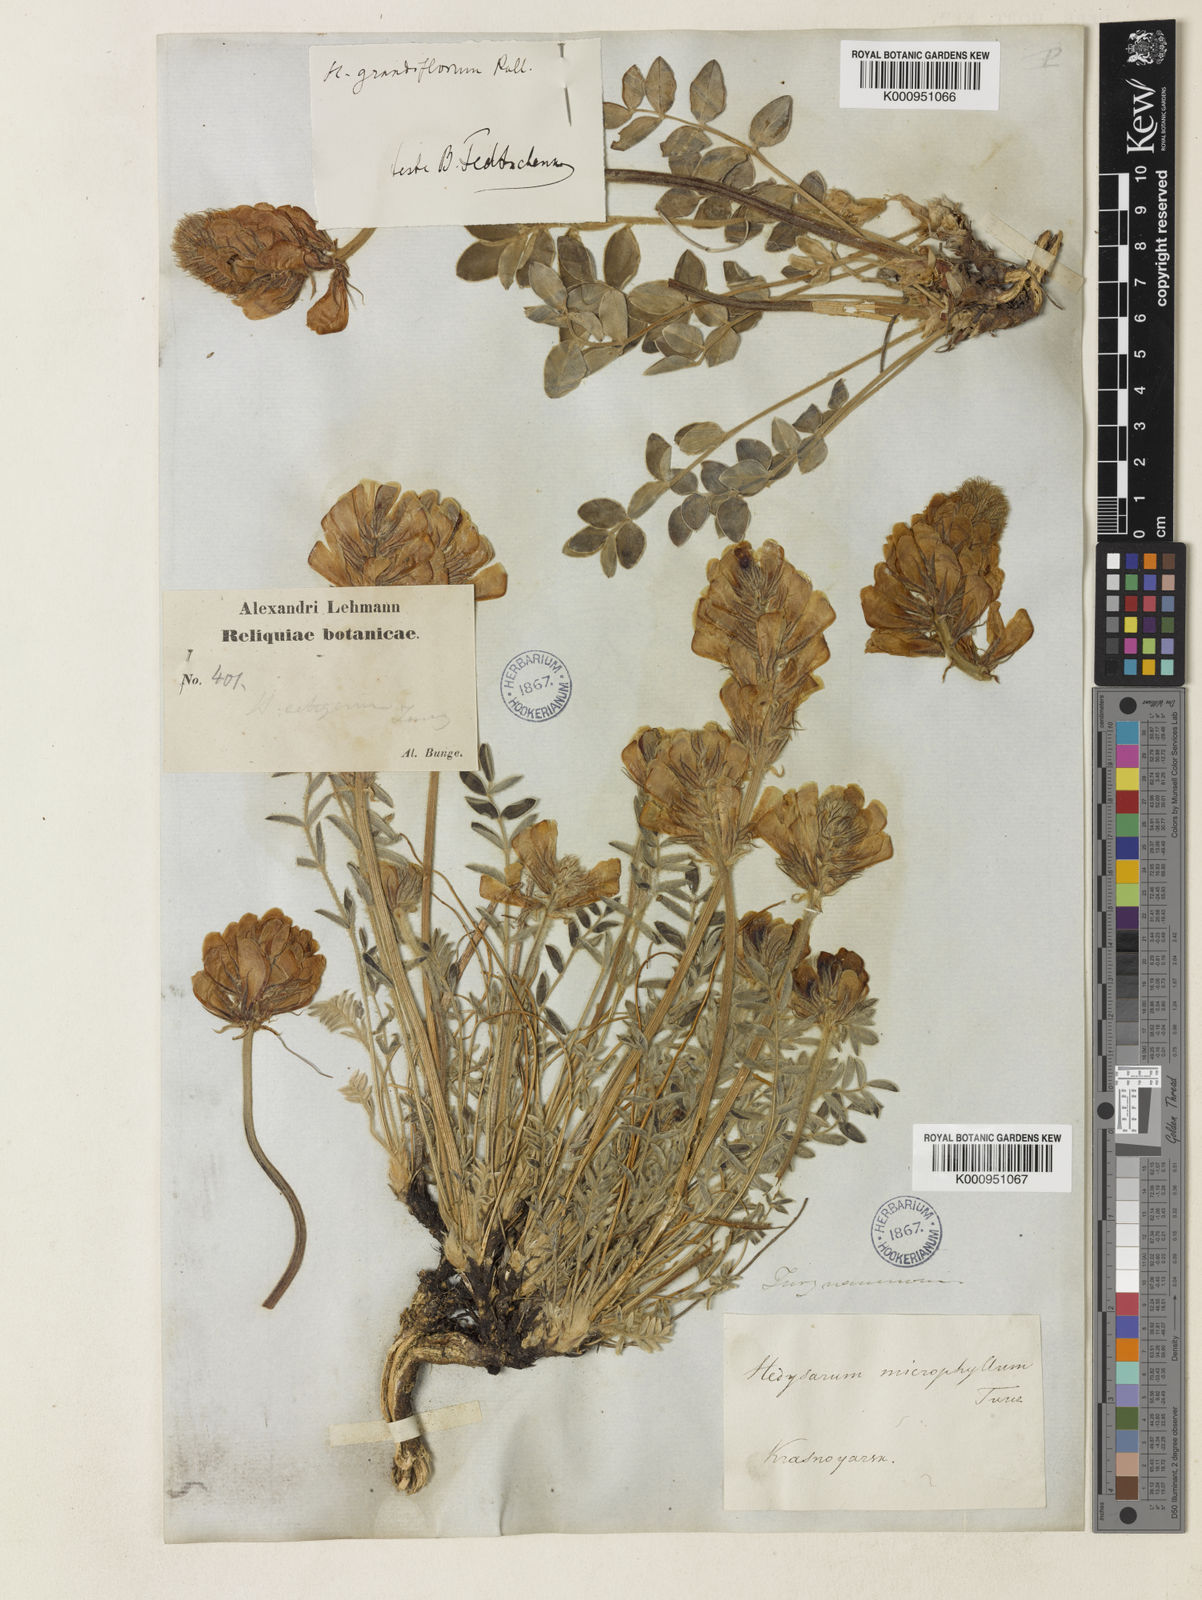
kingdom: Plantae
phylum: Tracheophyta
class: Magnoliopsida
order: Fabales
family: Fabaceae
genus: Hedysarum
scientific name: Hedysarum turczaninovii
